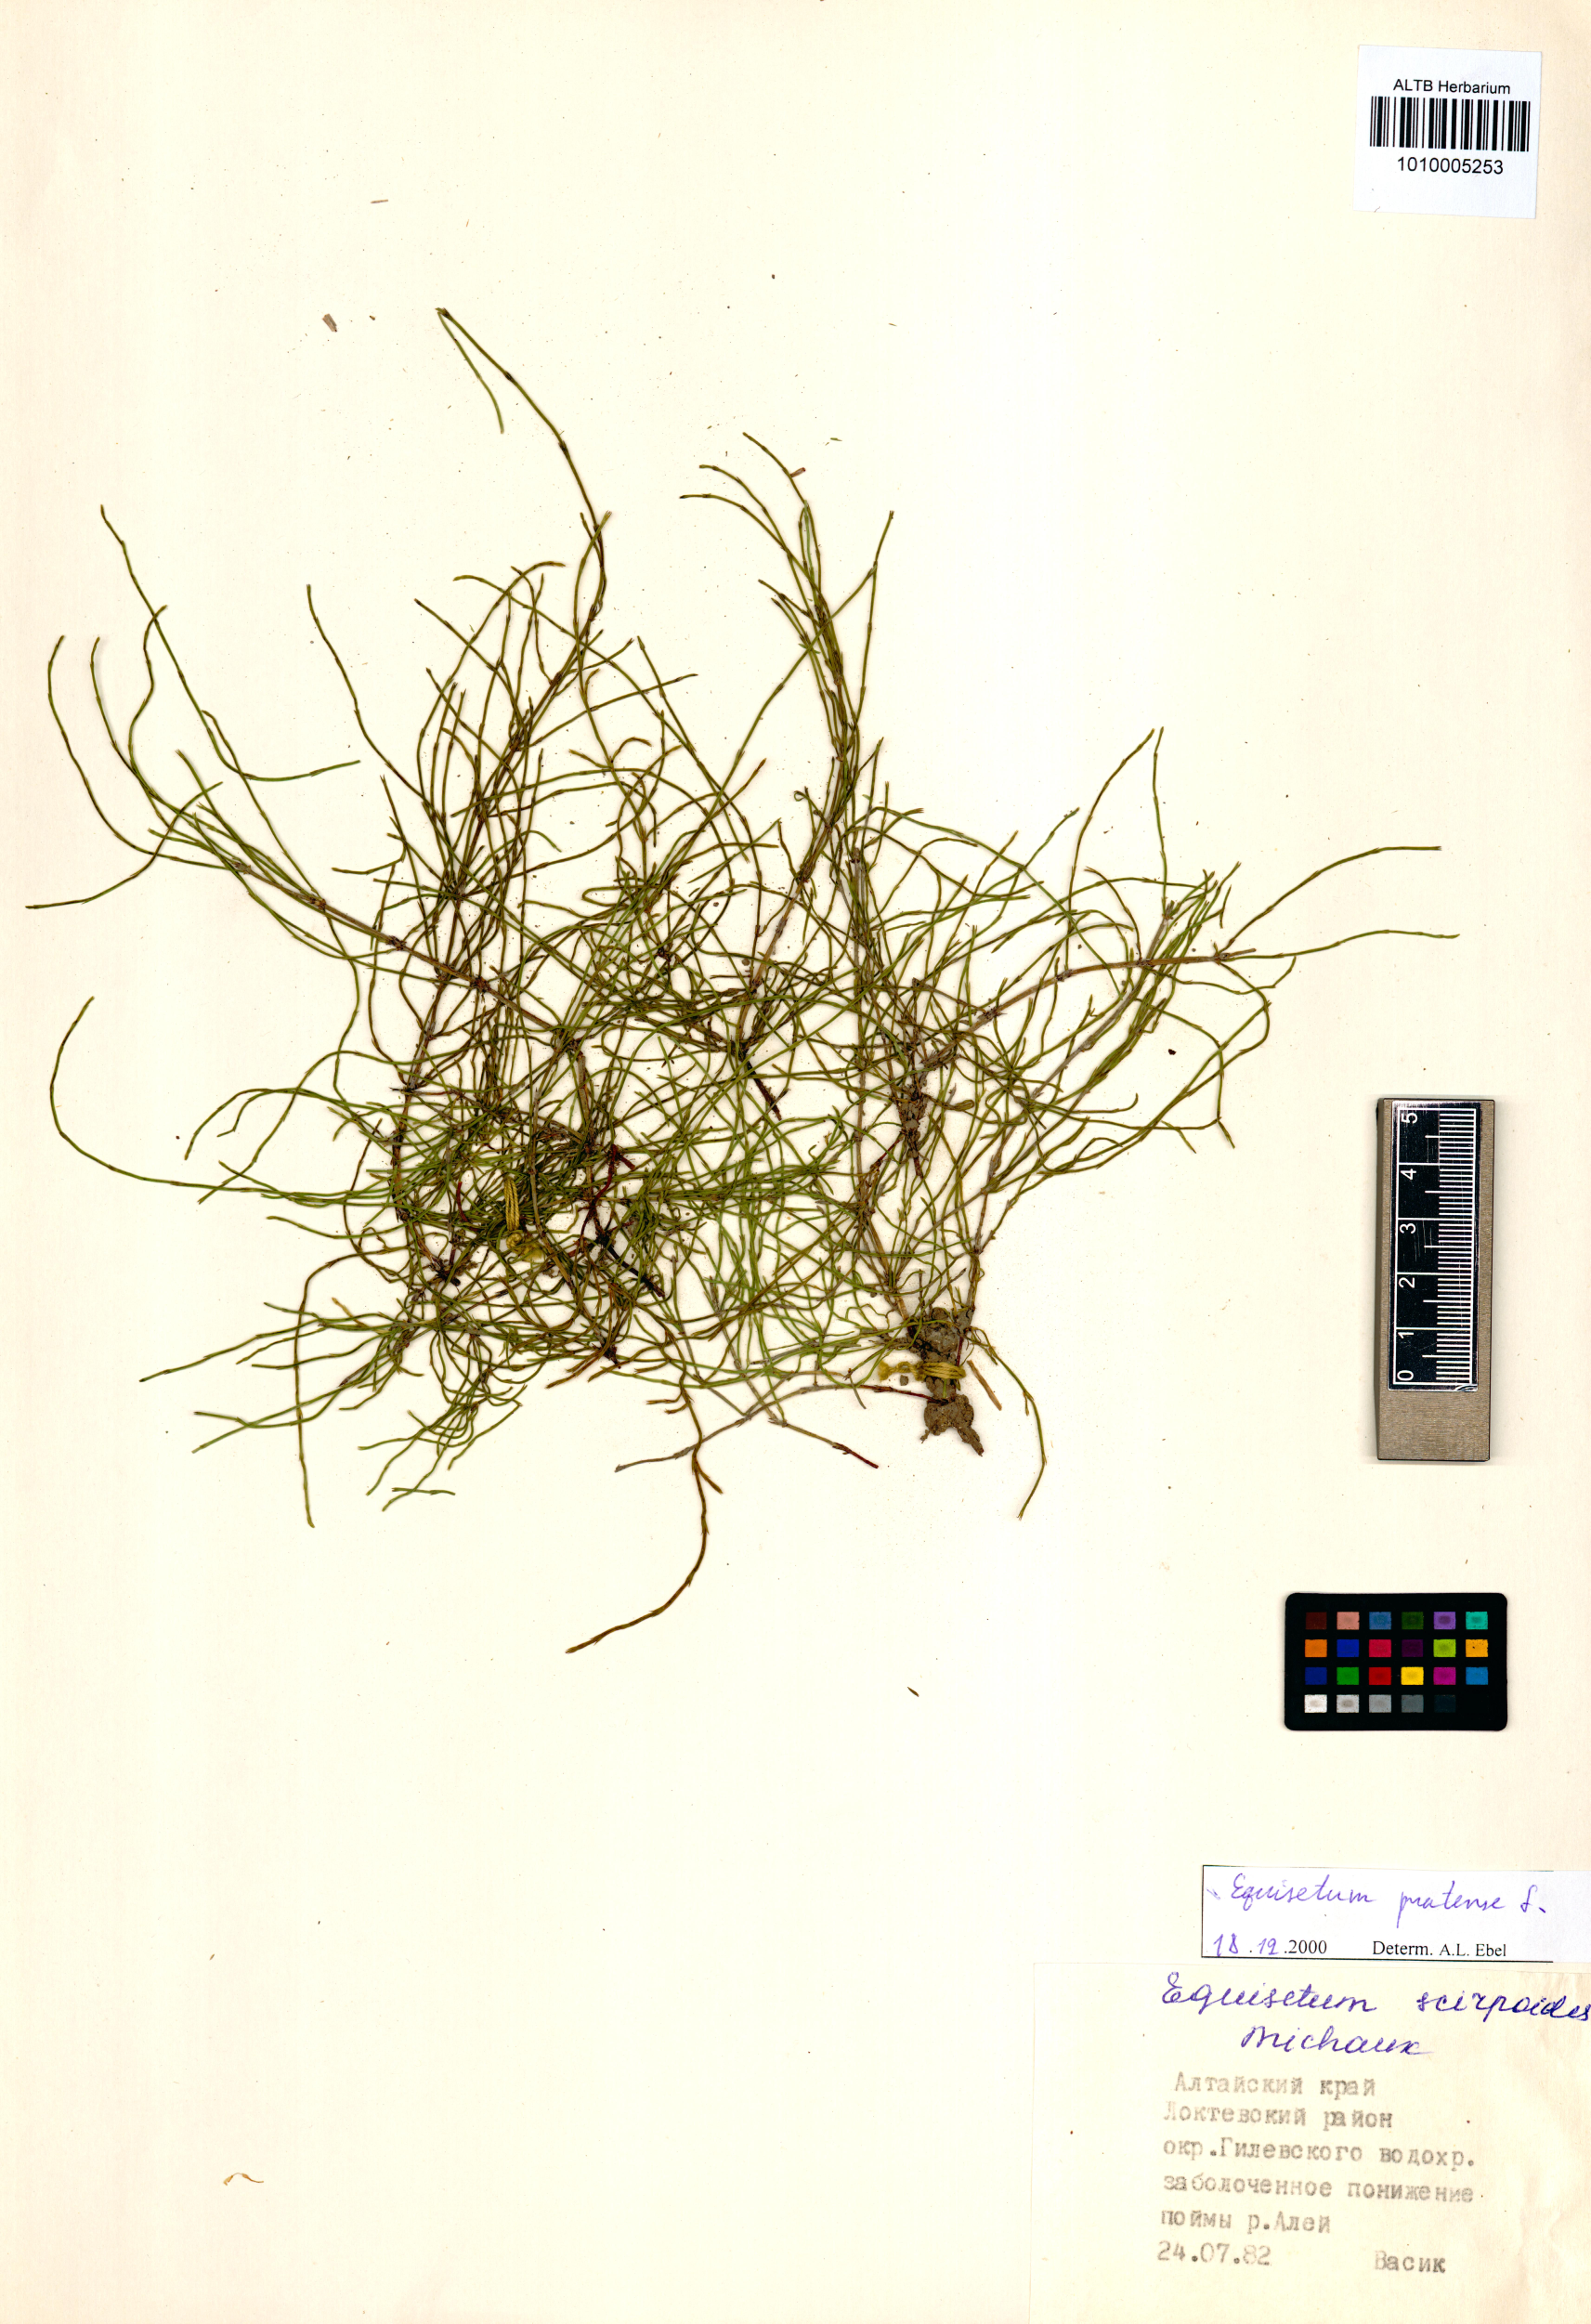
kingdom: Plantae
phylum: Tracheophyta
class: Polypodiopsida
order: Equisetales
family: Equisetaceae
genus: Equisetum
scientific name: Equisetum pratense
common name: Meadow horsetail
